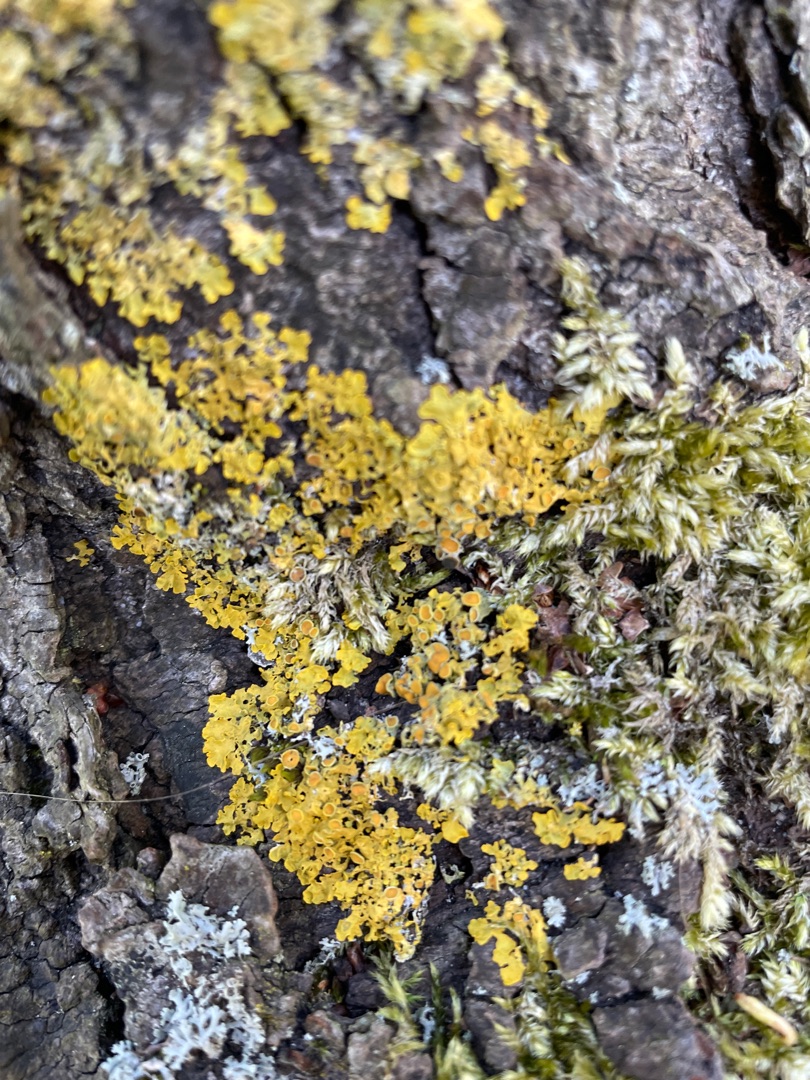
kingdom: Fungi
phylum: Ascomycota
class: Lecanoromycetes
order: Teloschistales
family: Teloschistaceae
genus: Xanthoria
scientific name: Xanthoria parietina
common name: Almindelig væggelav
